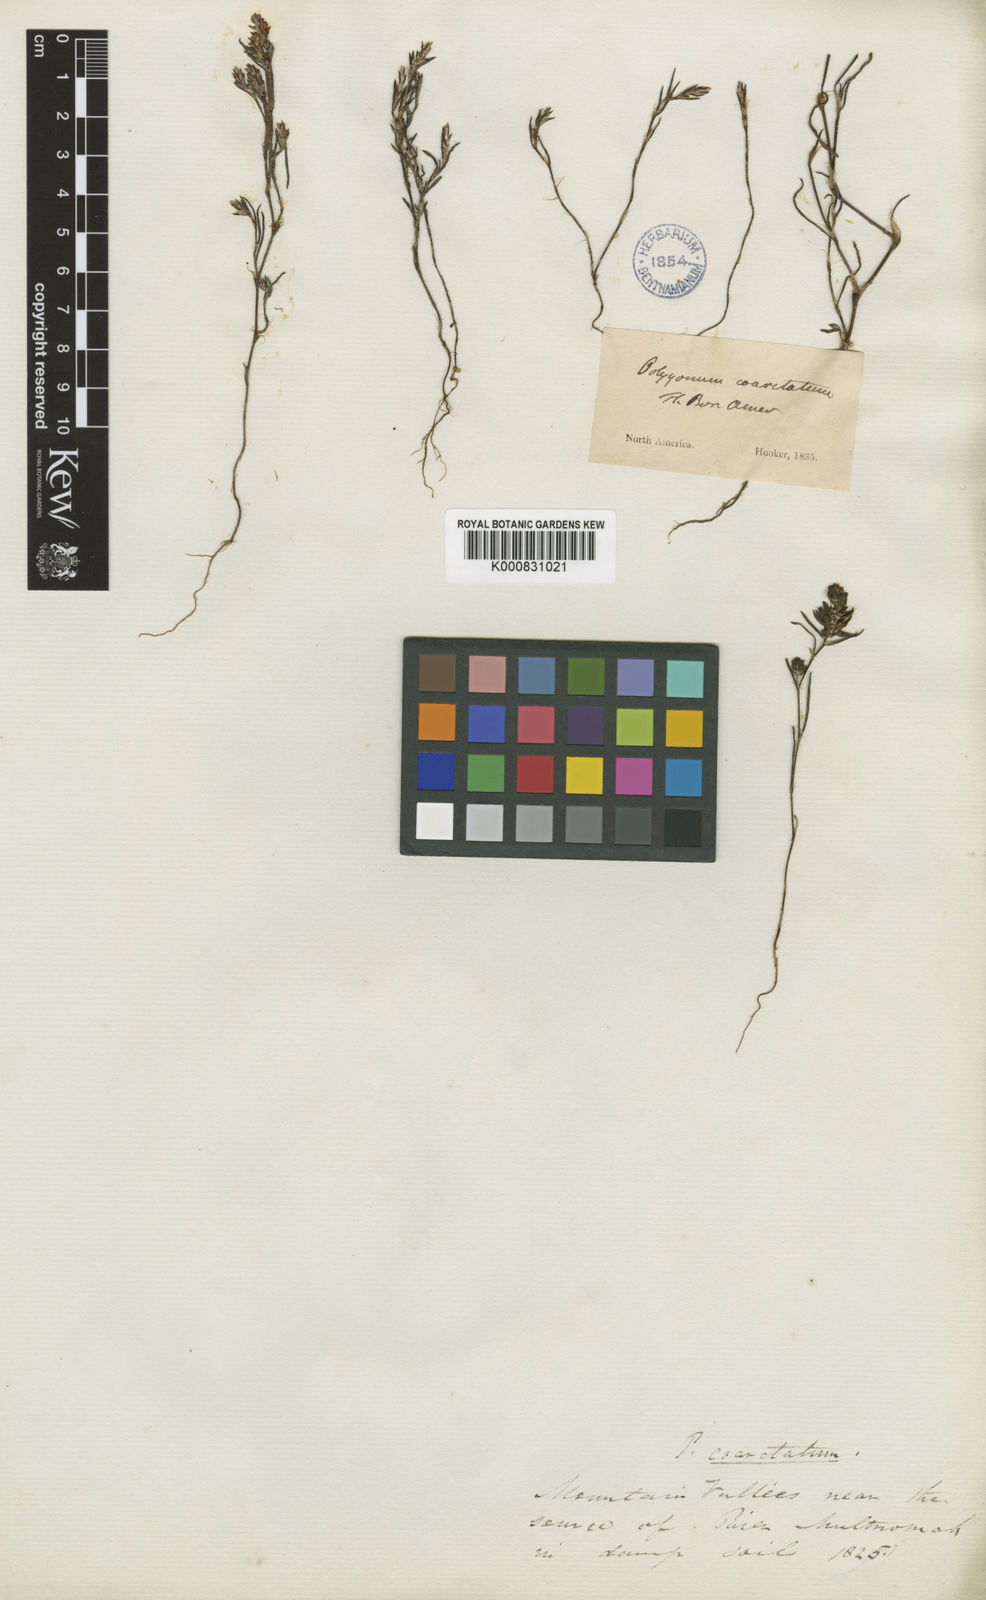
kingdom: Plantae
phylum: Tracheophyta
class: Magnoliopsida
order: Caryophyllales
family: Polygonaceae
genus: Polygonum
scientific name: Polygonum douglasii
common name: Douglas' knotweed
